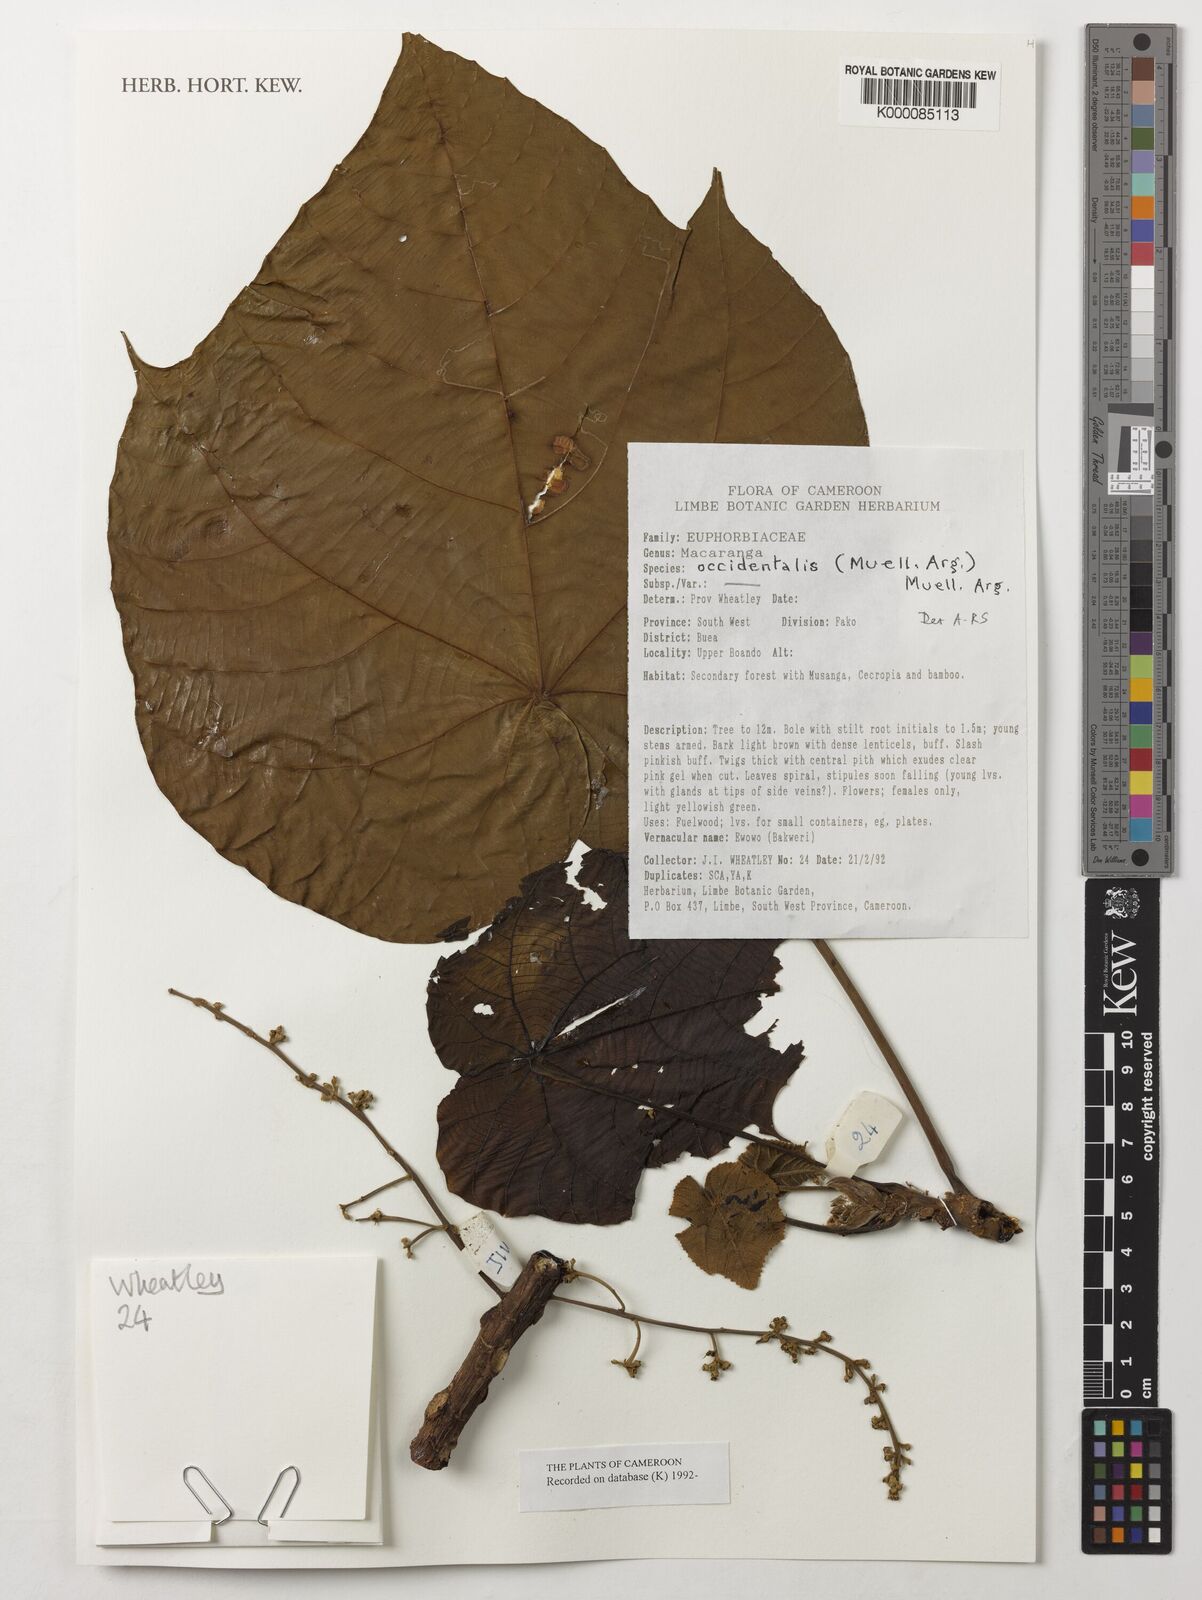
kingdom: Plantae
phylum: Tracheophyta
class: Magnoliopsida
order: Malpighiales
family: Euphorbiaceae
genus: Macaranga
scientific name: Macaranga
